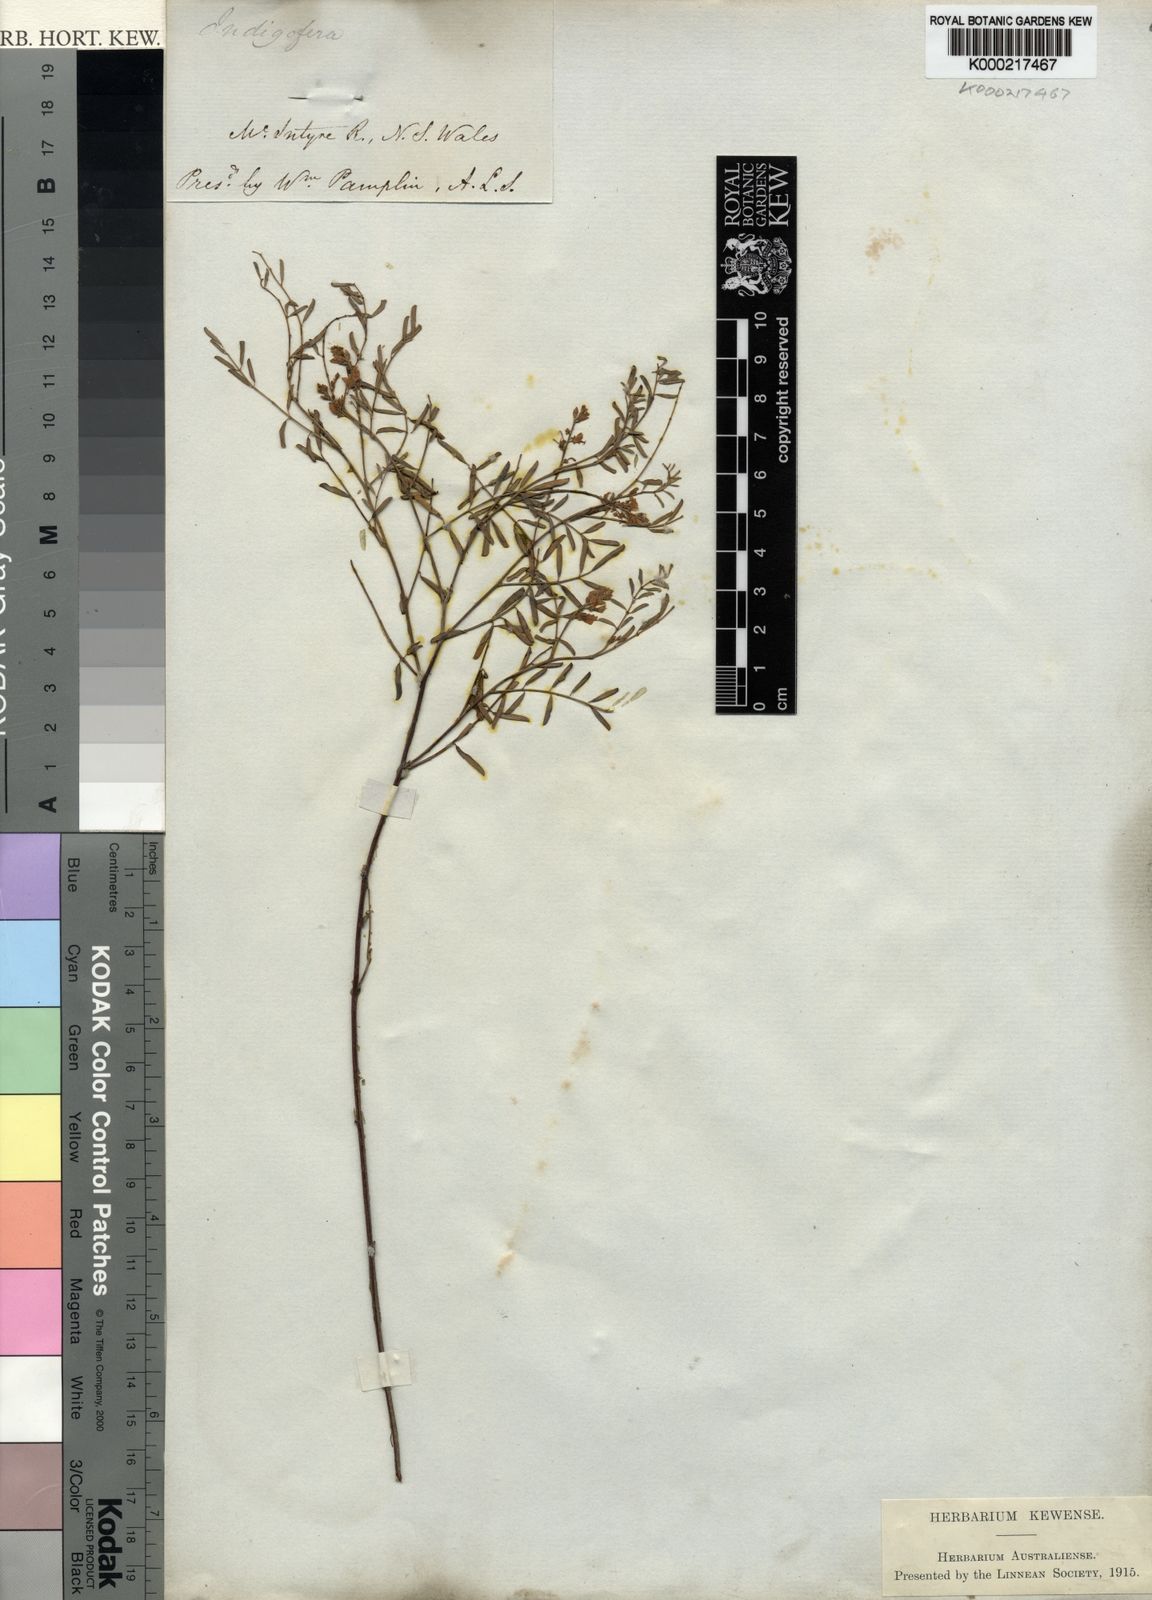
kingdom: Plantae
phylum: Tracheophyta
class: Magnoliopsida
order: Fabales
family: Fabaceae
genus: Indigofera
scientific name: Indigofera
